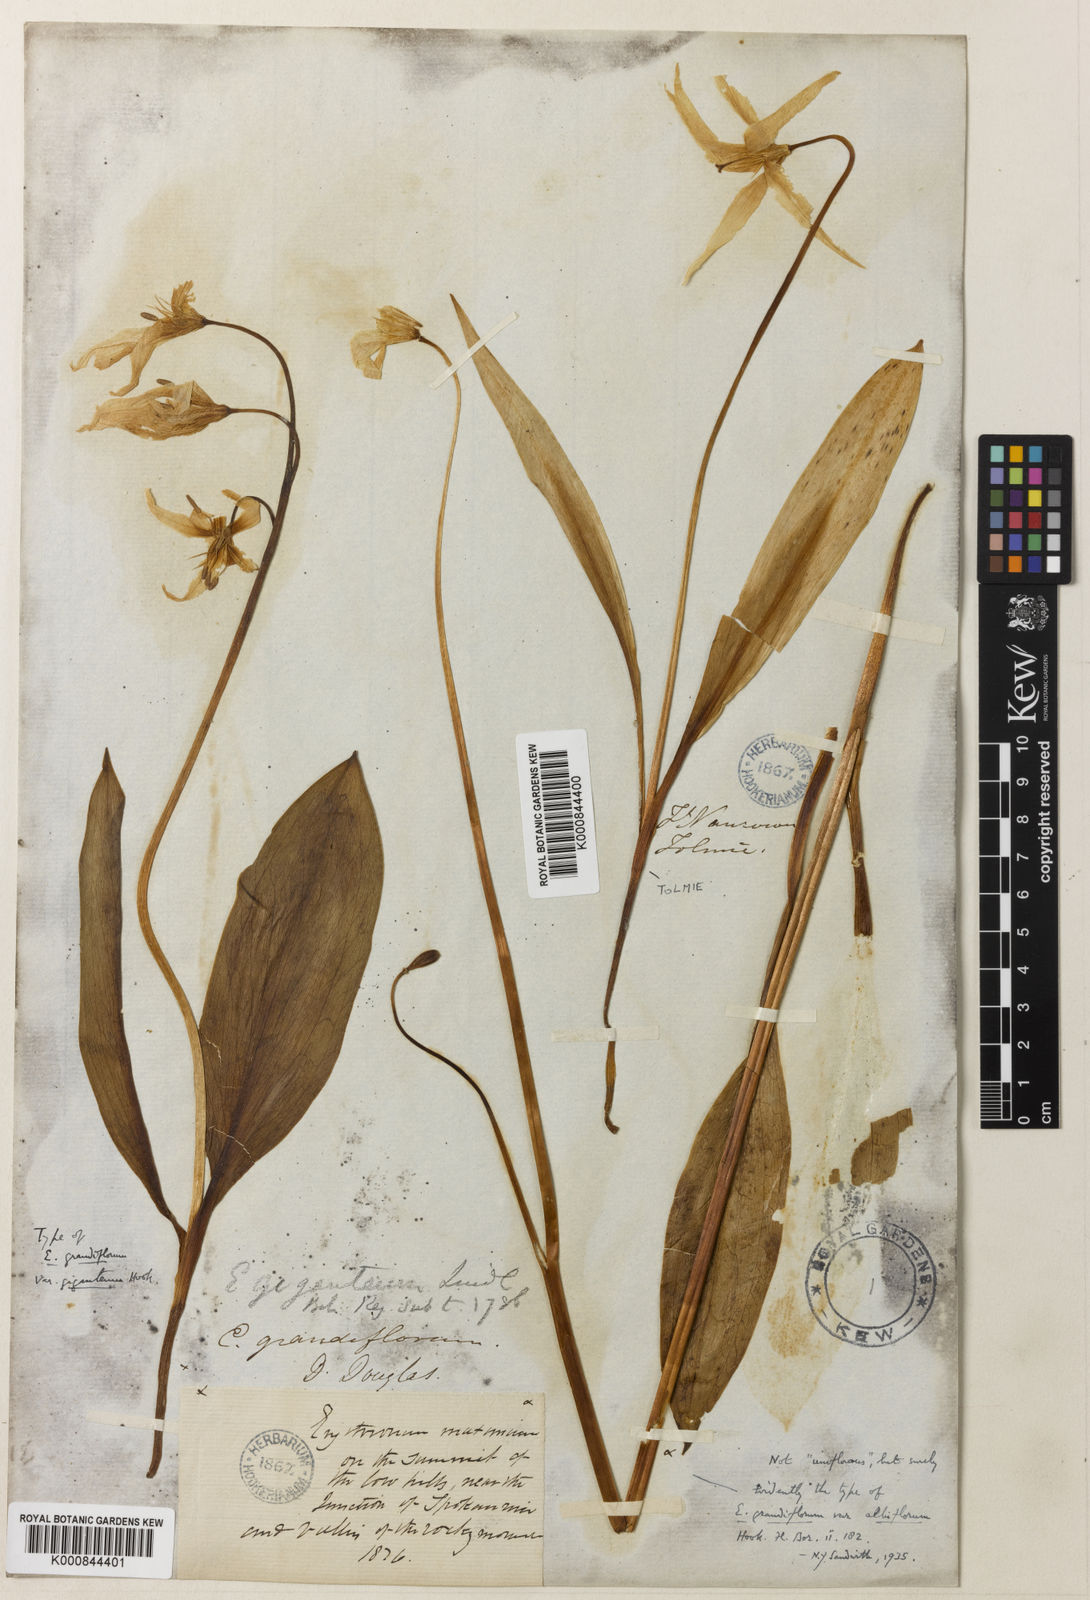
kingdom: Plantae
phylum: Tracheophyta
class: Liliopsida
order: Liliales
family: Liliaceae
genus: Erythronium
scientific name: Erythronium grandiflorum
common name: Avalanche-lily
